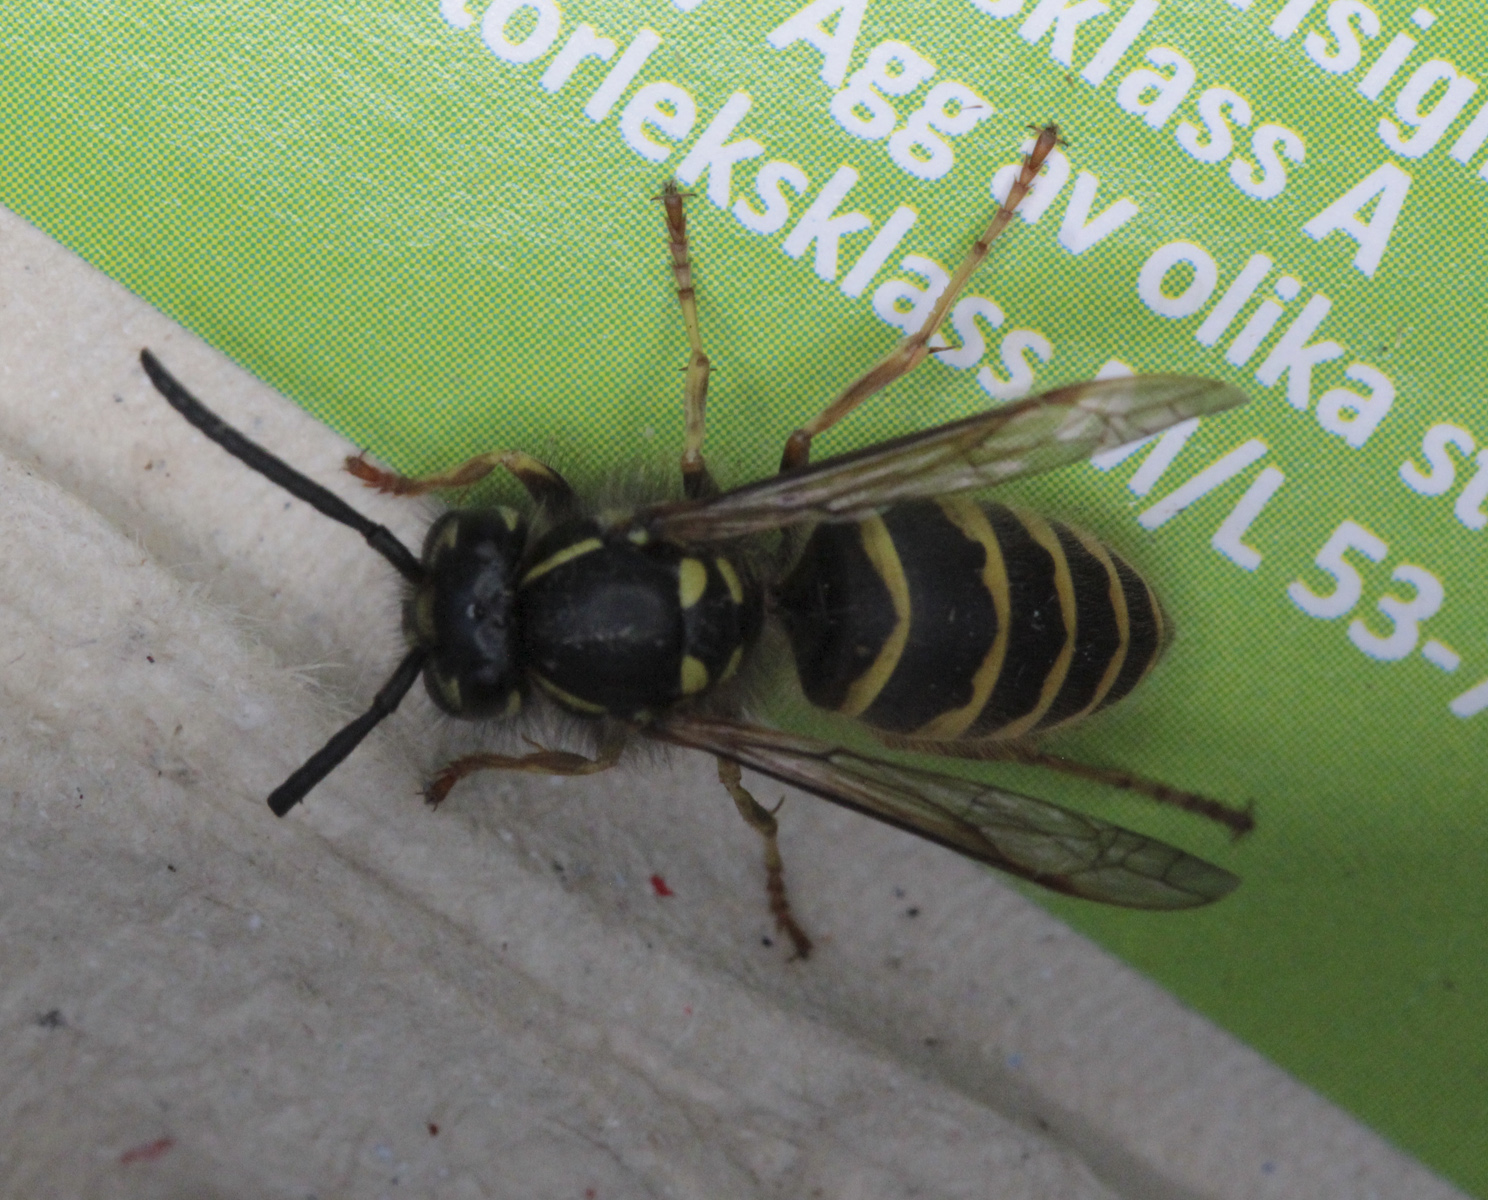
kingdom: Animalia
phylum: Arthropoda
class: Insecta
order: Hymenoptera
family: Vespidae
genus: Vespula
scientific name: Vespula vulgaris
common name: Common wasp
